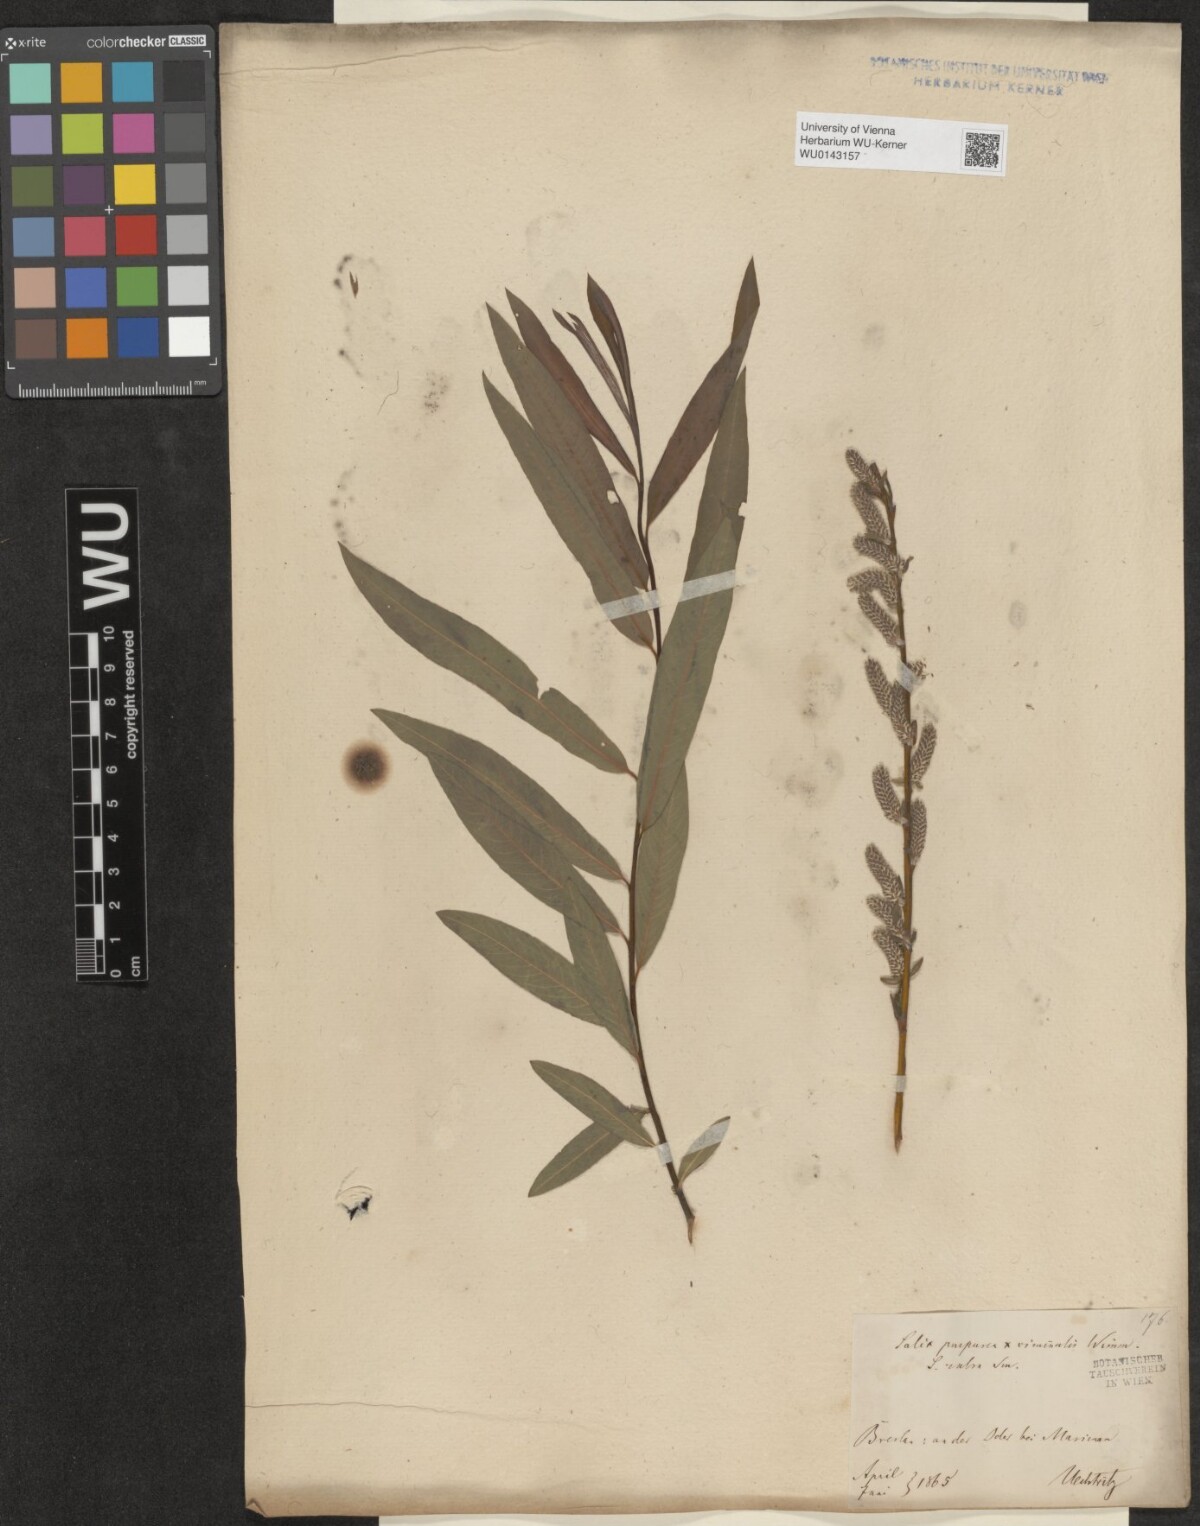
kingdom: Plantae
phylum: Tracheophyta
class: Magnoliopsida
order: Malpighiales
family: Salicaceae
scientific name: Salicaceae
